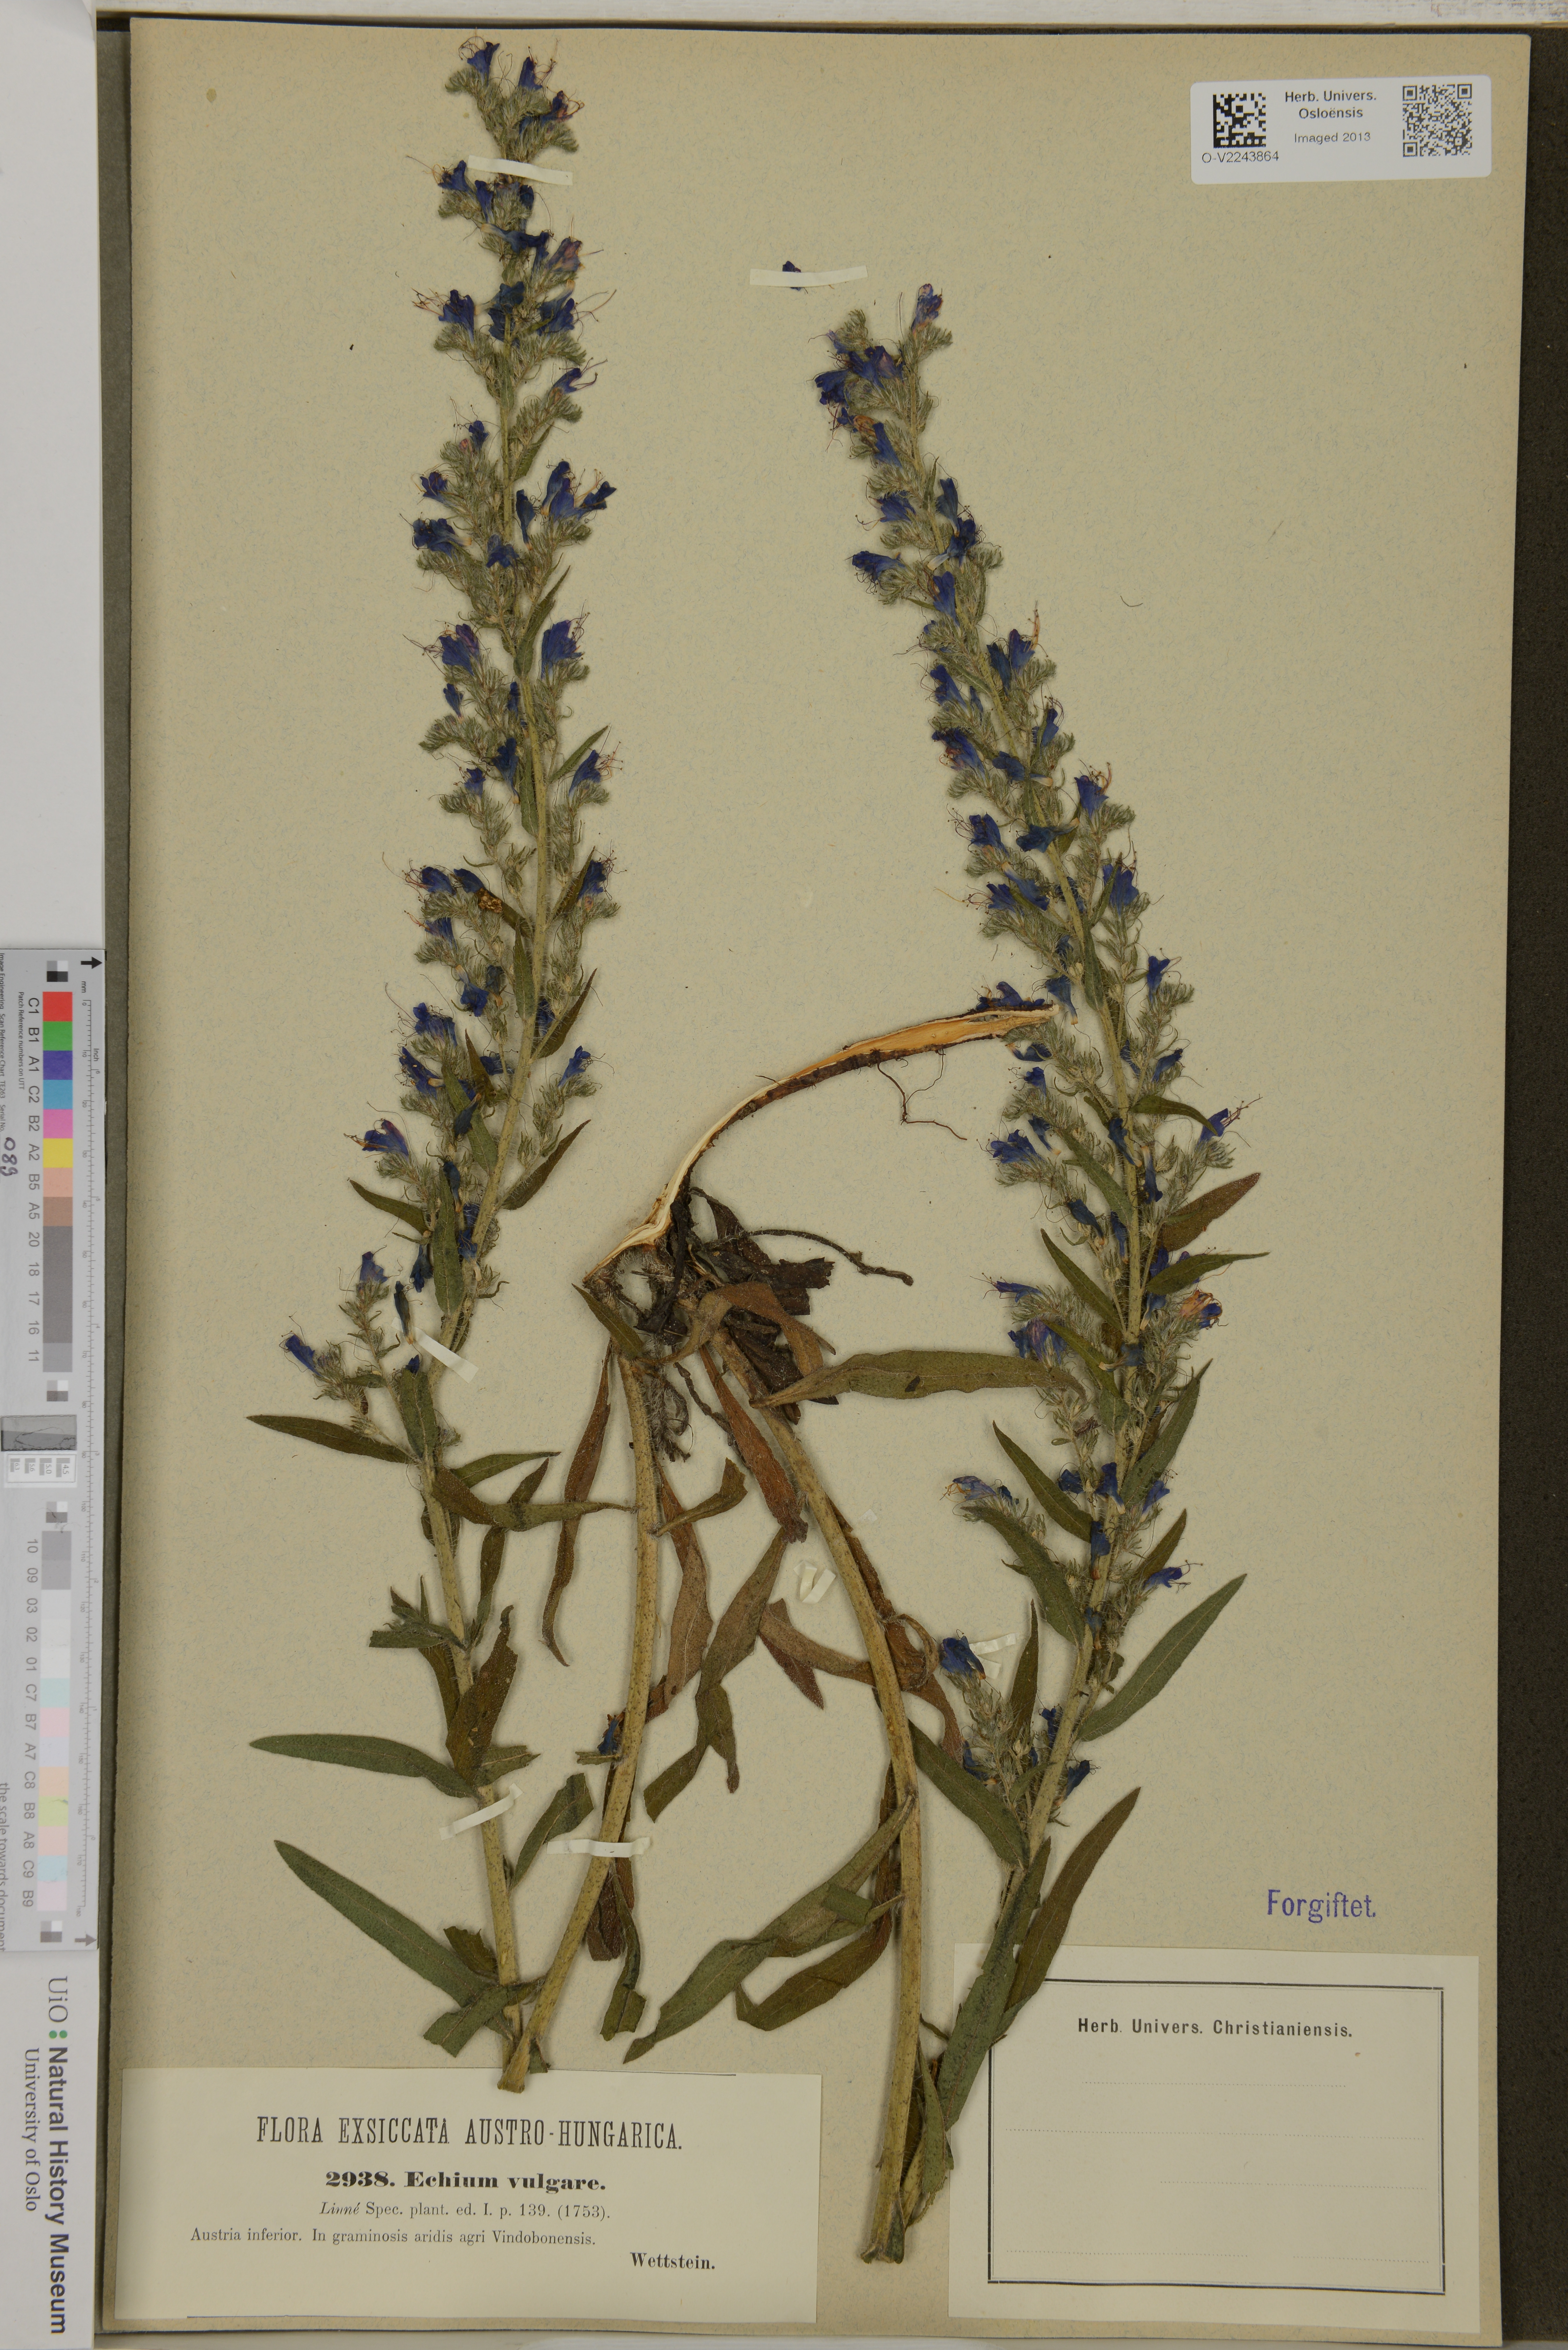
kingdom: Plantae
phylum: Tracheophyta
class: Magnoliopsida
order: Boraginales
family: Boraginaceae
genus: Echium
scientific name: Echium vulgare
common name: Common viper's bugloss
